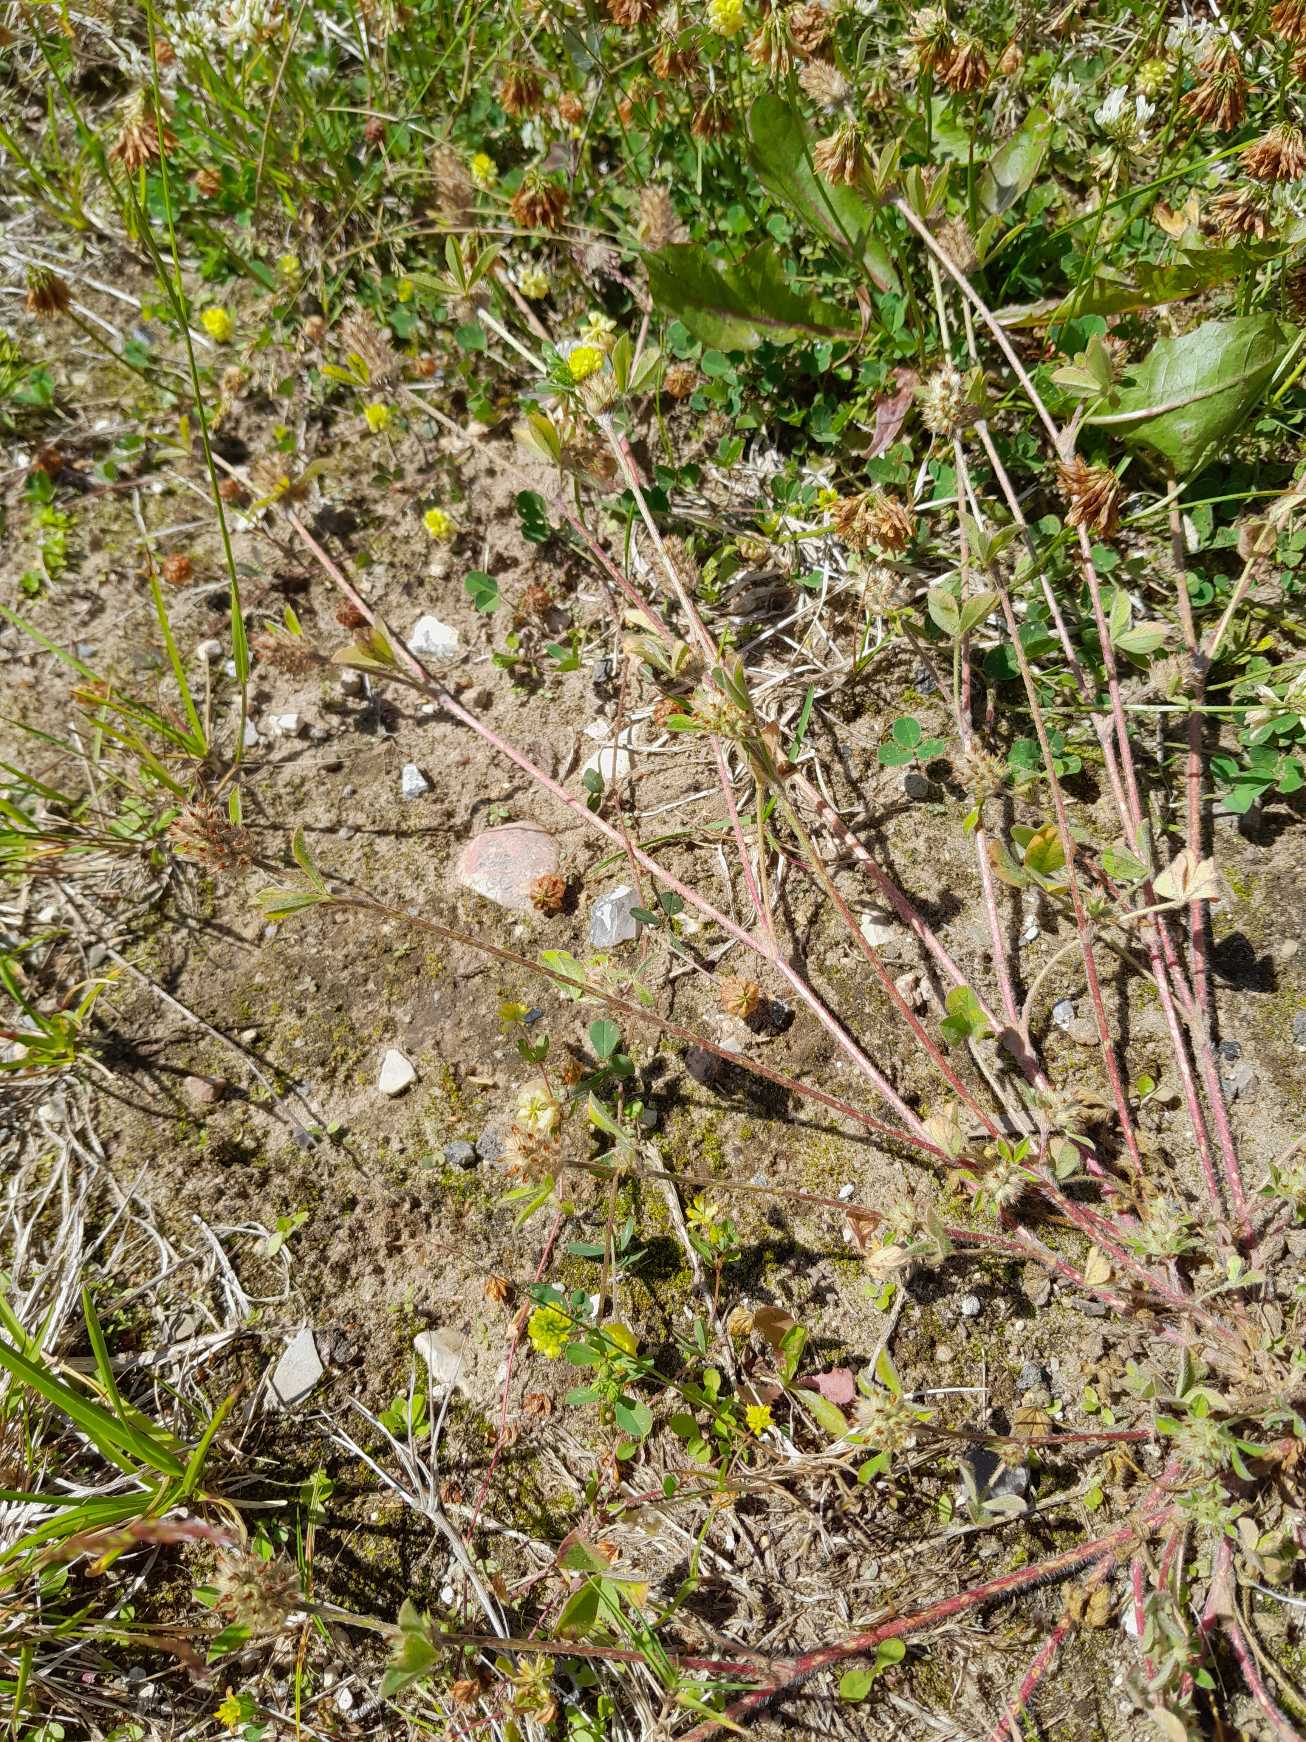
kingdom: Plantae
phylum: Tracheophyta
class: Magnoliopsida
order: Fabales
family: Fabaceae
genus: Trifolium
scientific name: Trifolium striatum
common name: Stribet kløver
